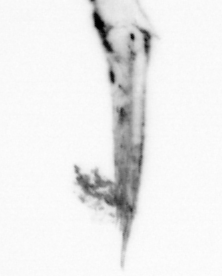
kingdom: Animalia
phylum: Arthropoda
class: Maxillopoda
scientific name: Maxillopoda
